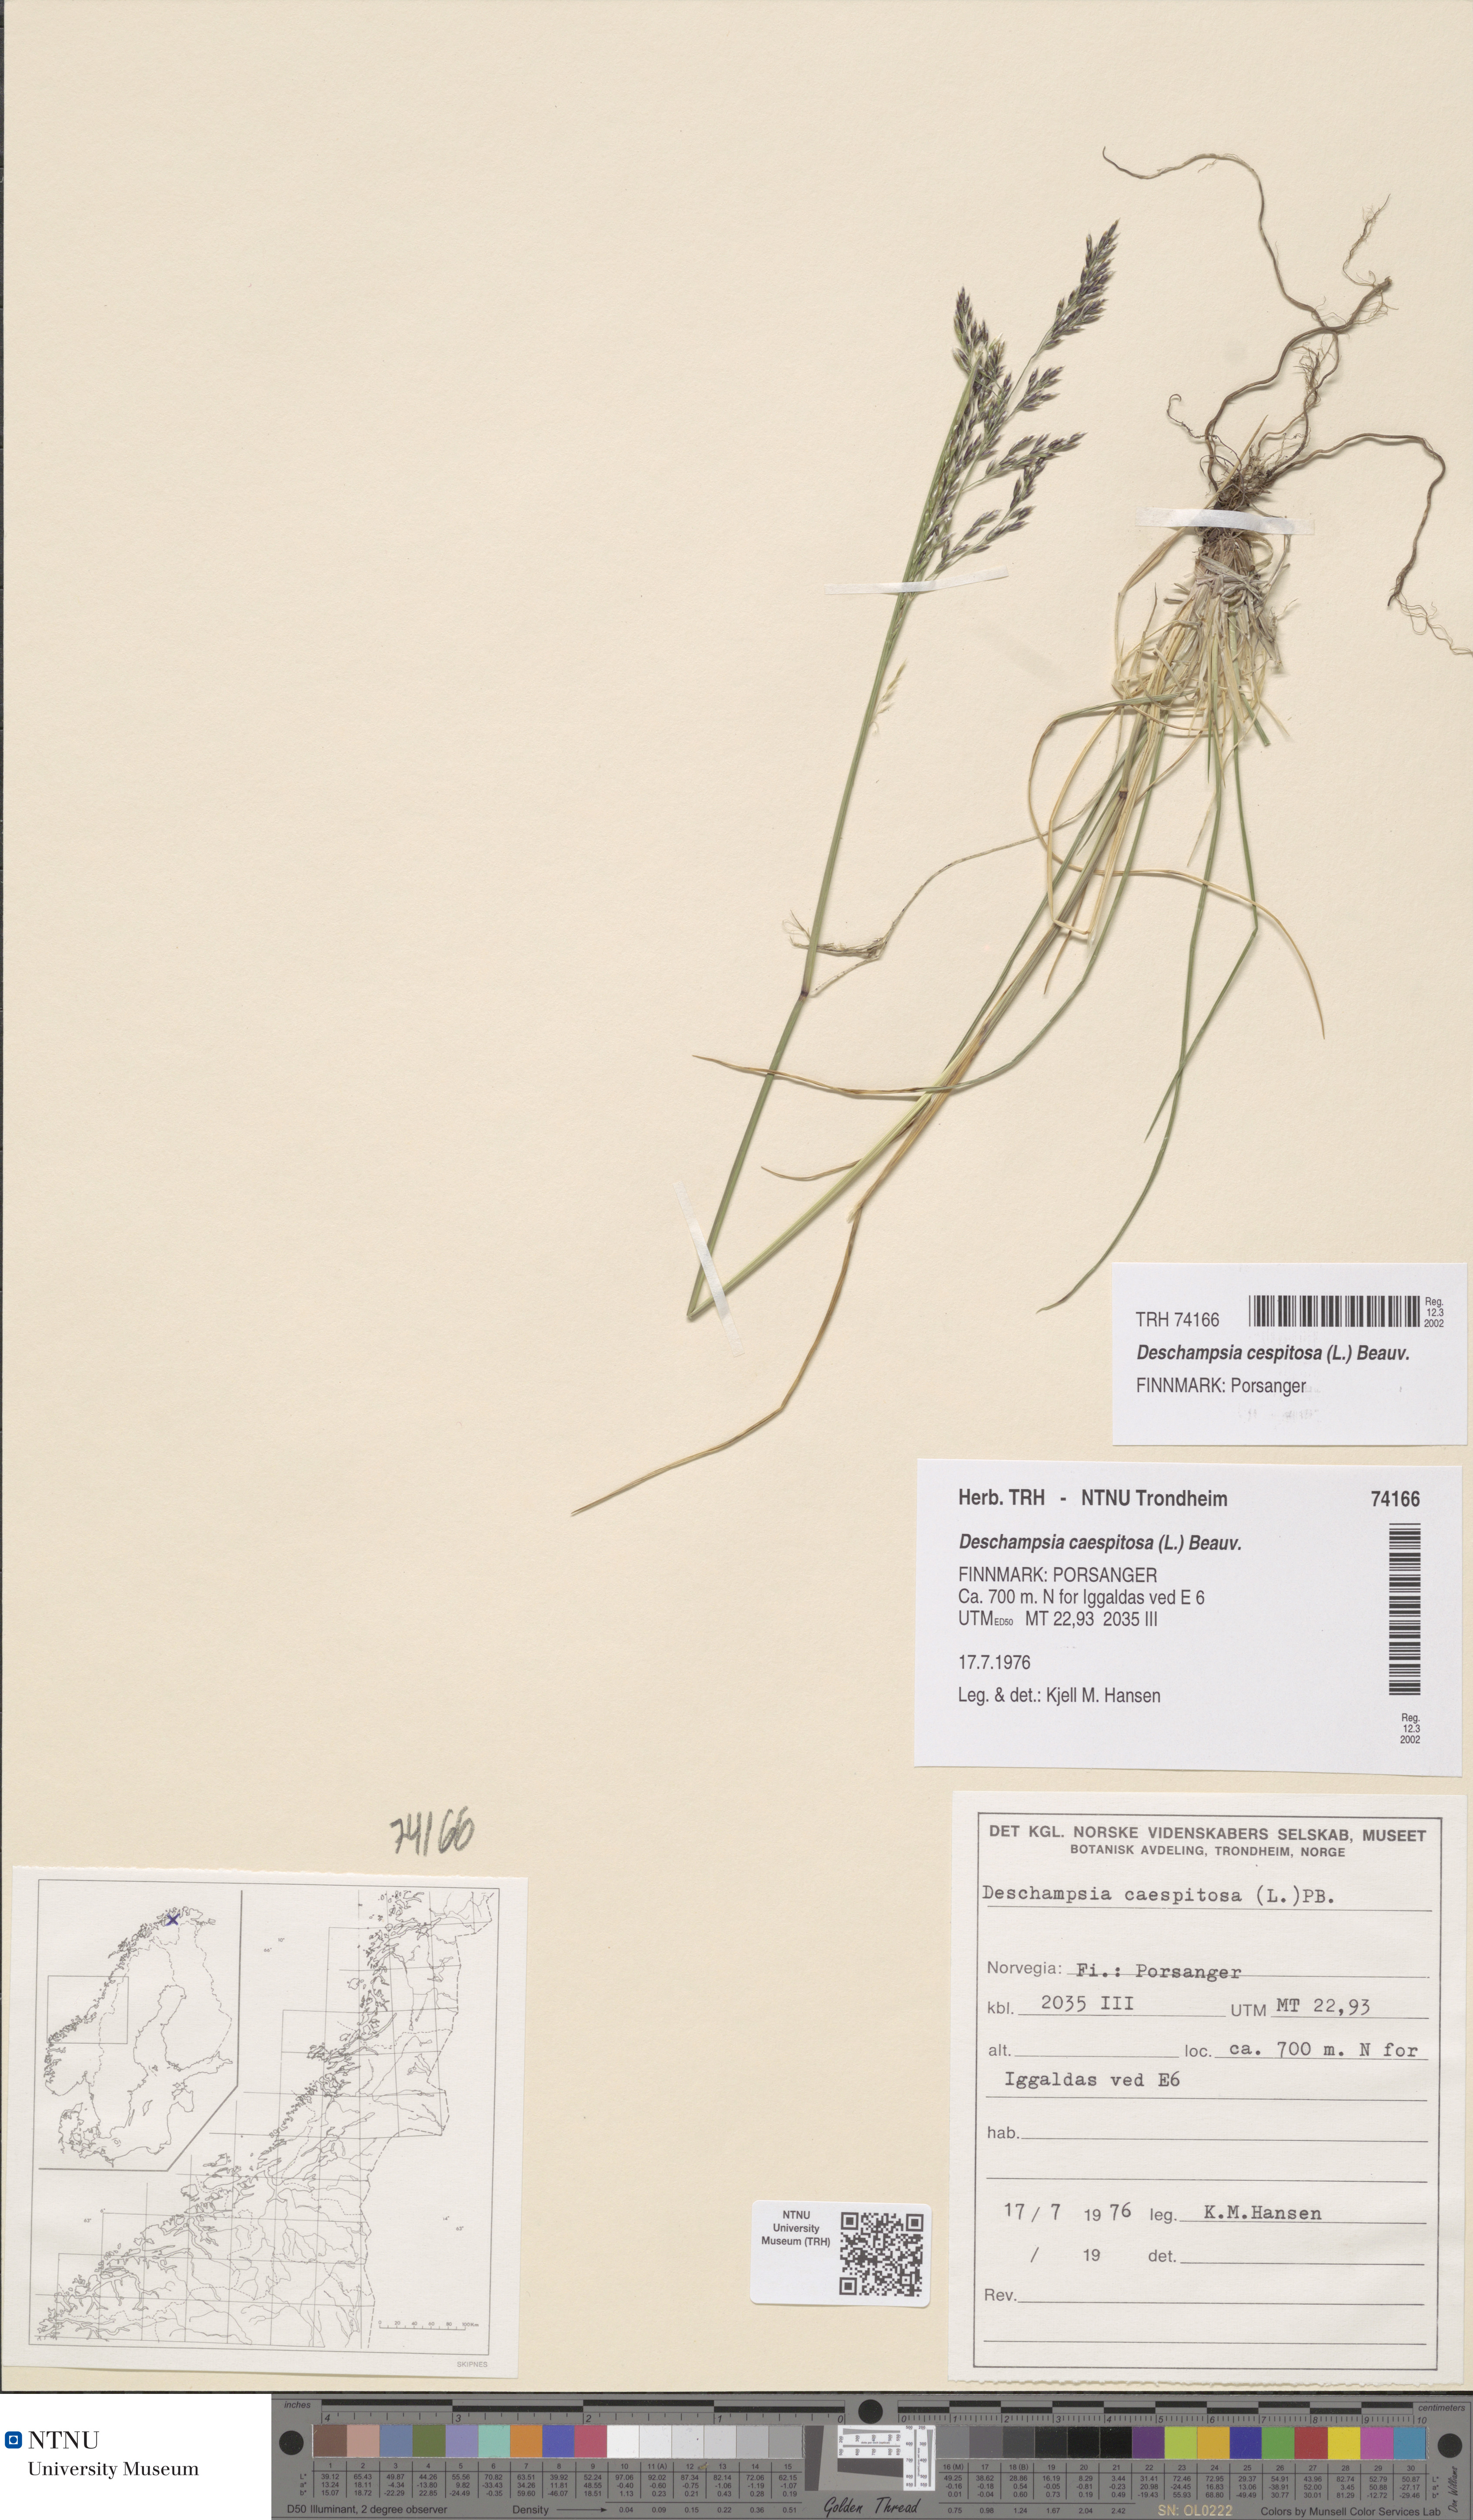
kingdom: Plantae
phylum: Tracheophyta
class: Liliopsida
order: Poales
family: Poaceae
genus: Deschampsia
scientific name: Deschampsia cespitosa
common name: Tufted hair-grass
